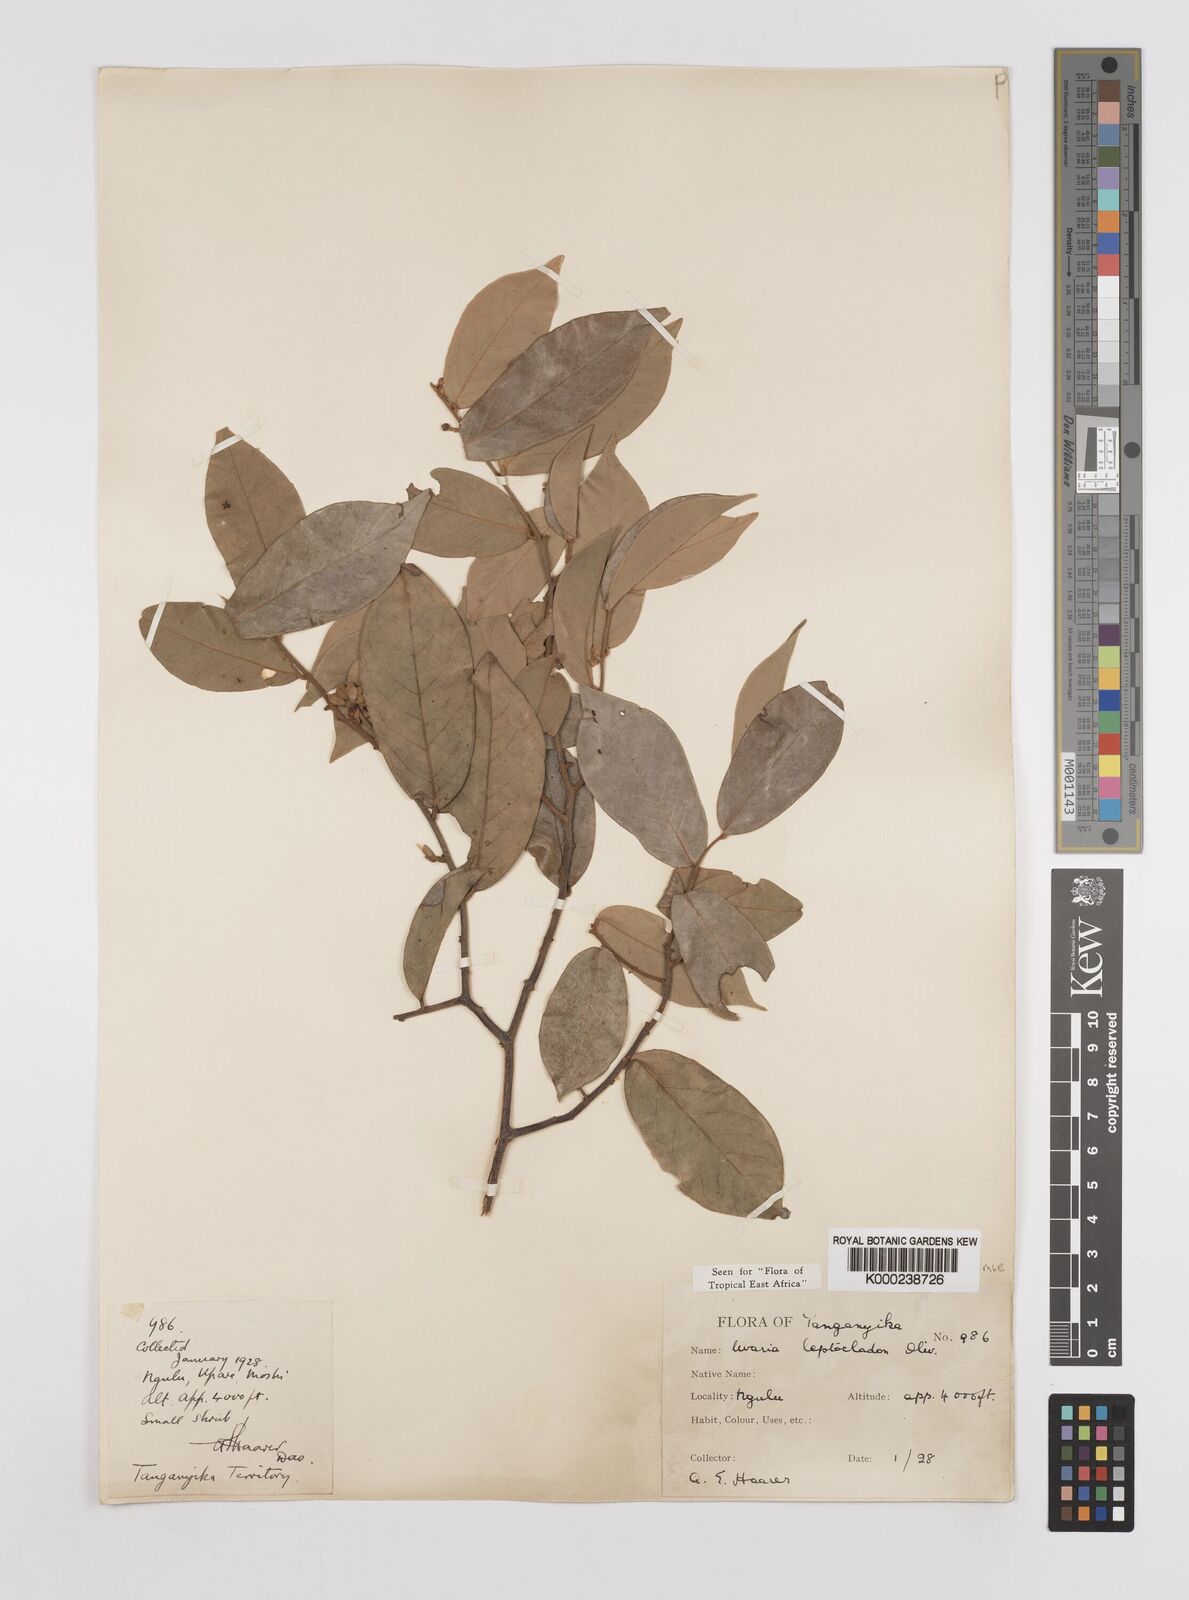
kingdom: Plantae
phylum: Tracheophyta
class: Magnoliopsida
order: Magnoliales
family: Annonaceae
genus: Uvaria
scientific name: Uvaria leptocladon
